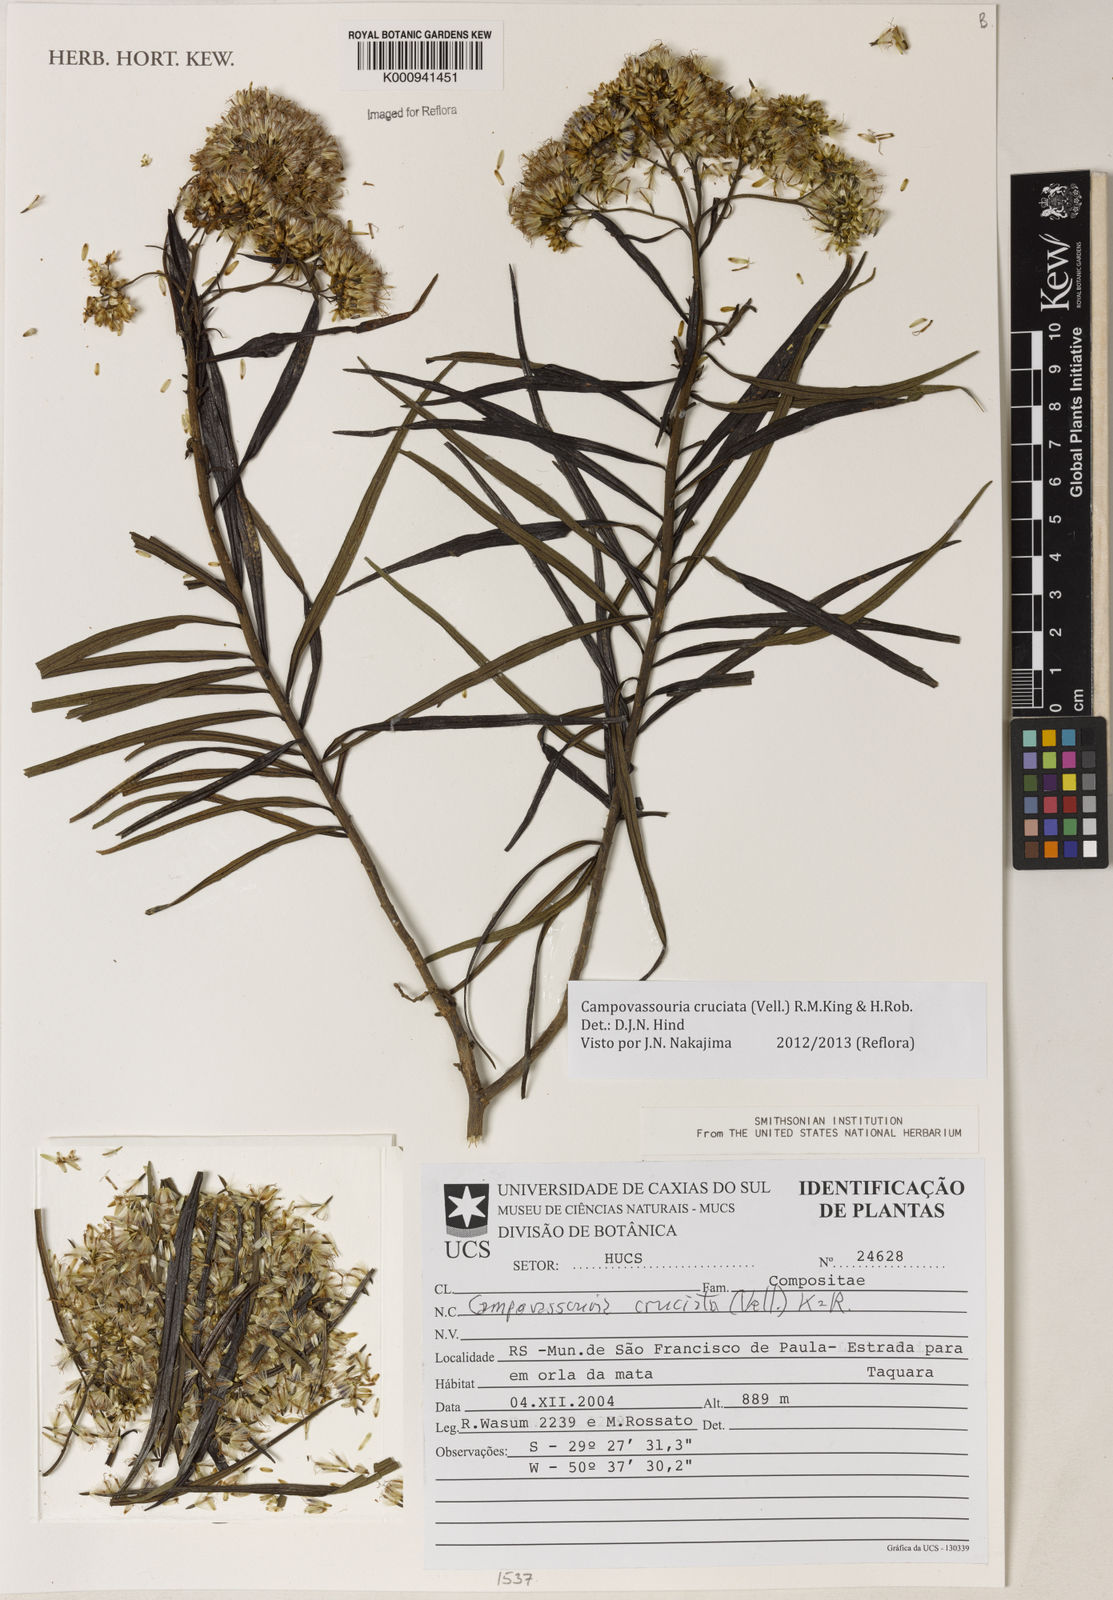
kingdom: Plantae
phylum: Tracheophyta
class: Magnoliopsida
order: Asterales
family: Asteraceae
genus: Campovassouria
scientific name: Campovassouria cruciata
